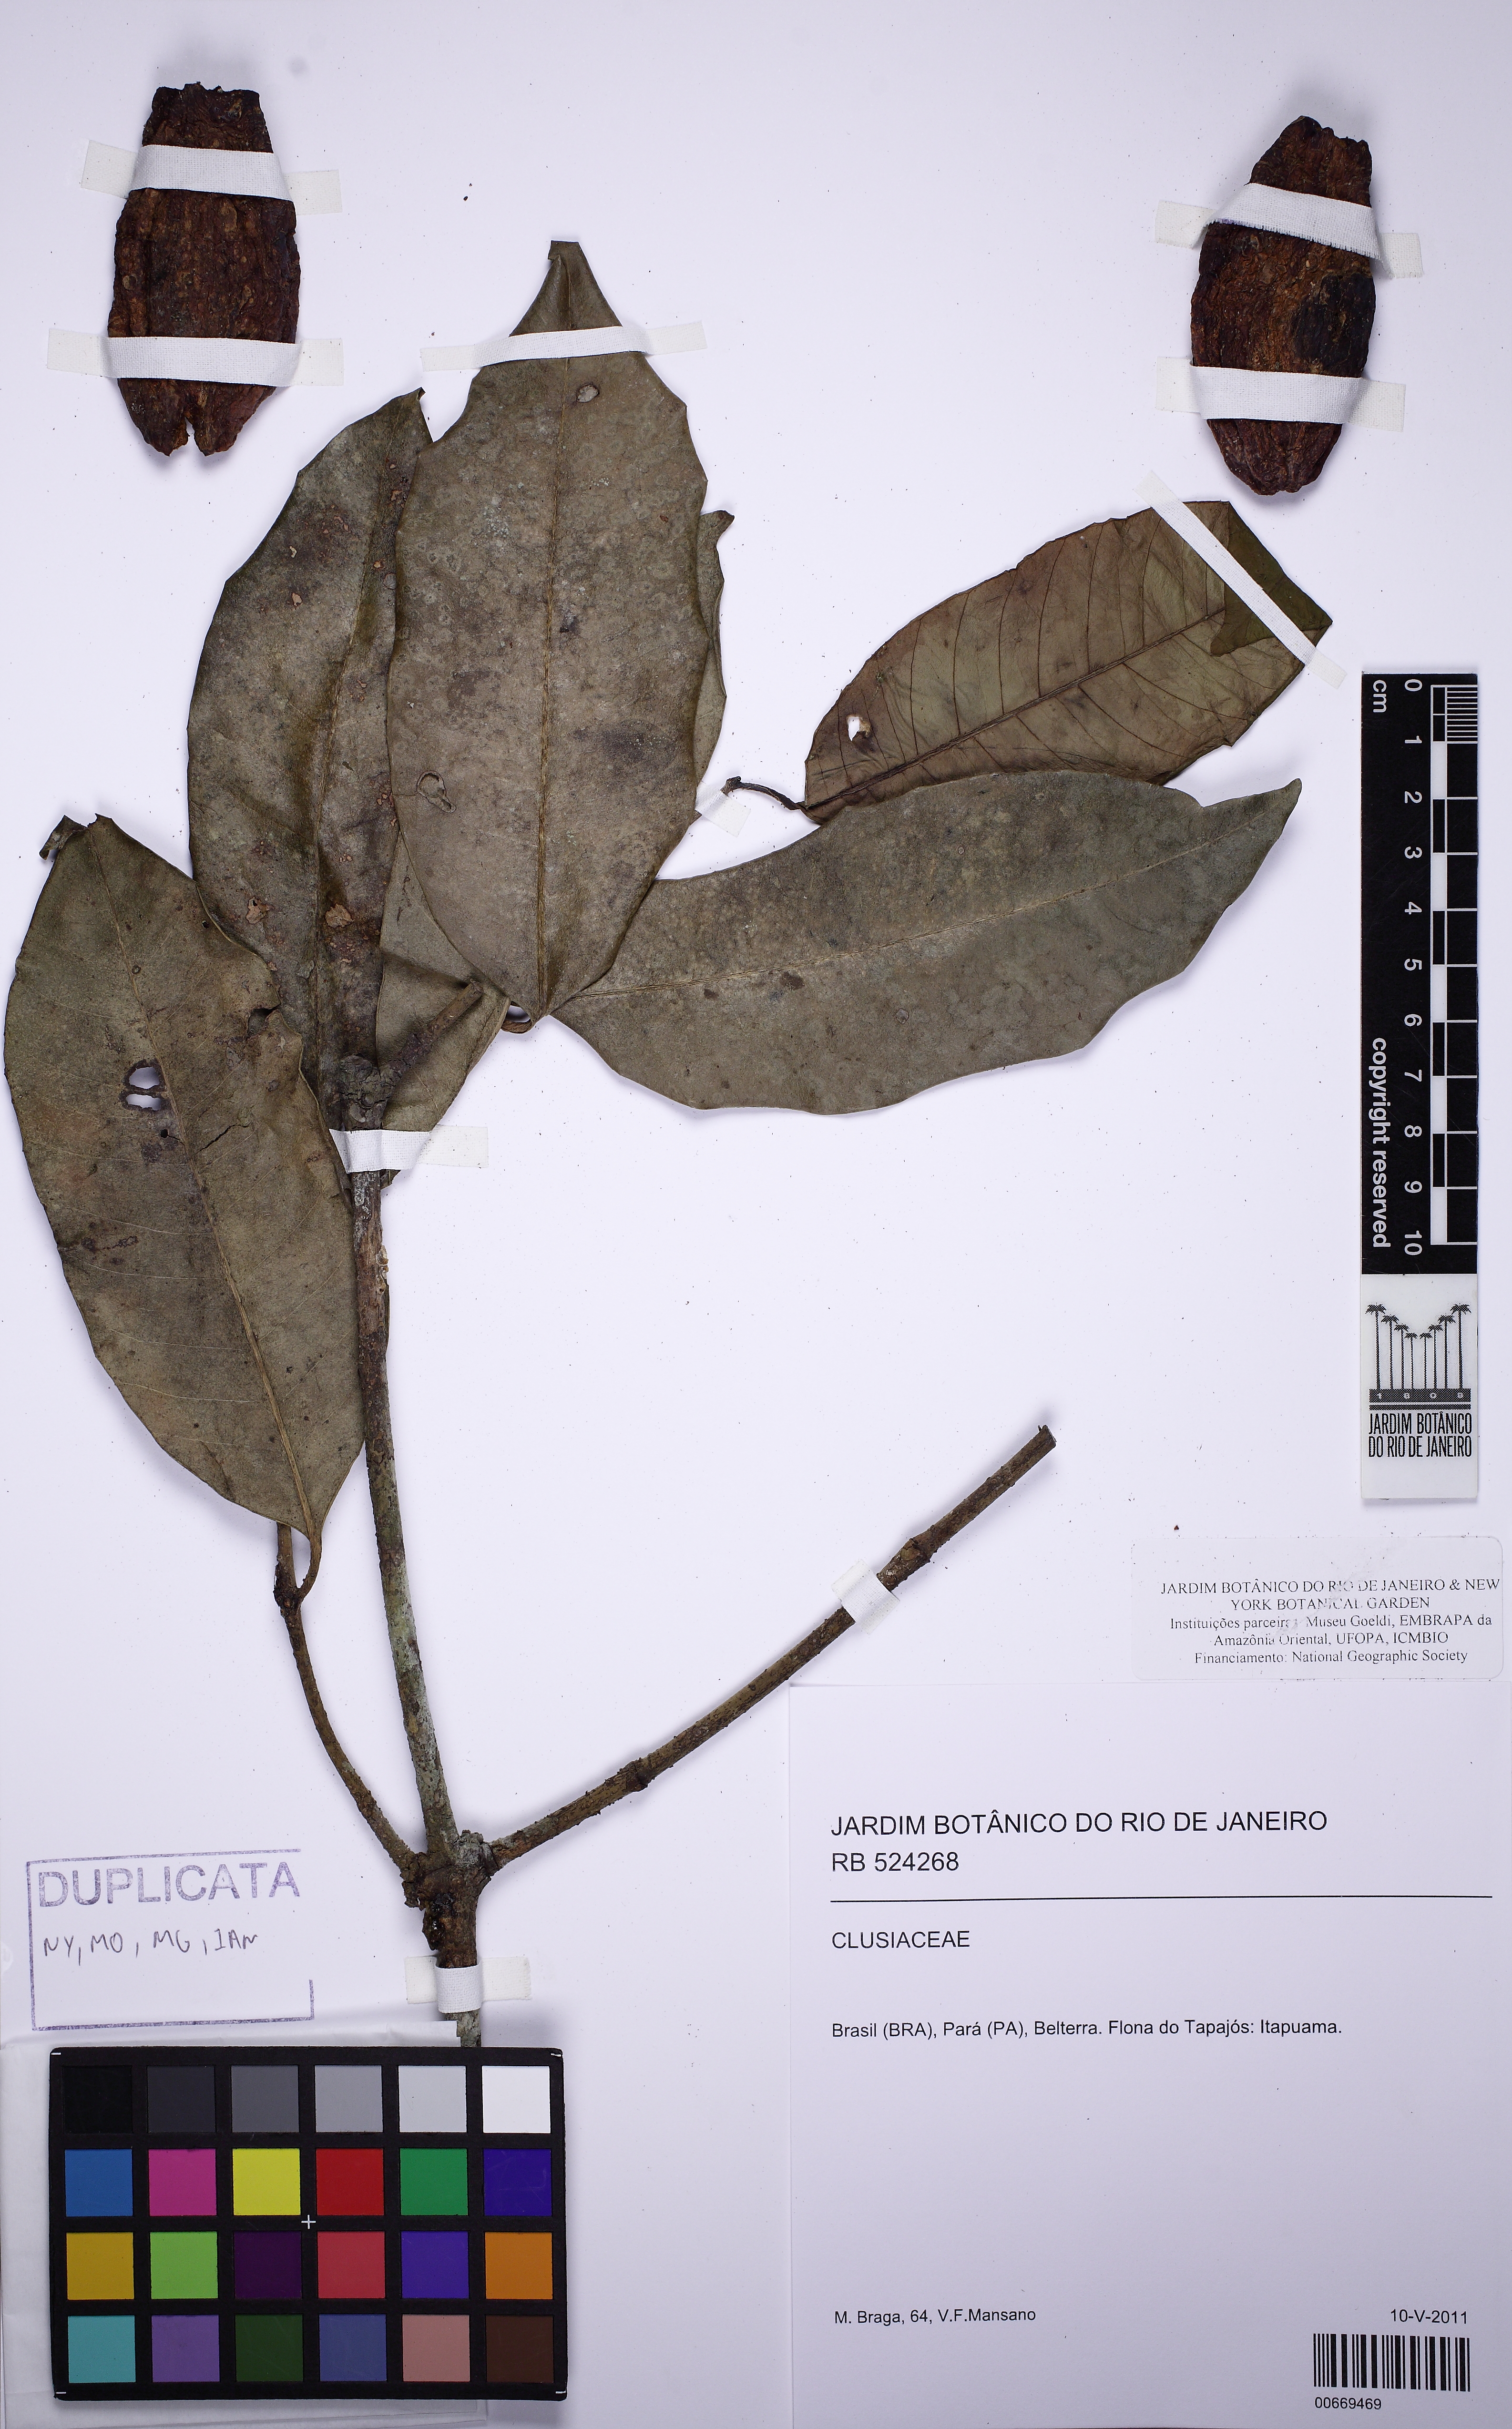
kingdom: Plantae
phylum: Tracheophyta
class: Magnoliopsida
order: Malpighiales
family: Clusiaceae
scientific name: Clusiaceae
